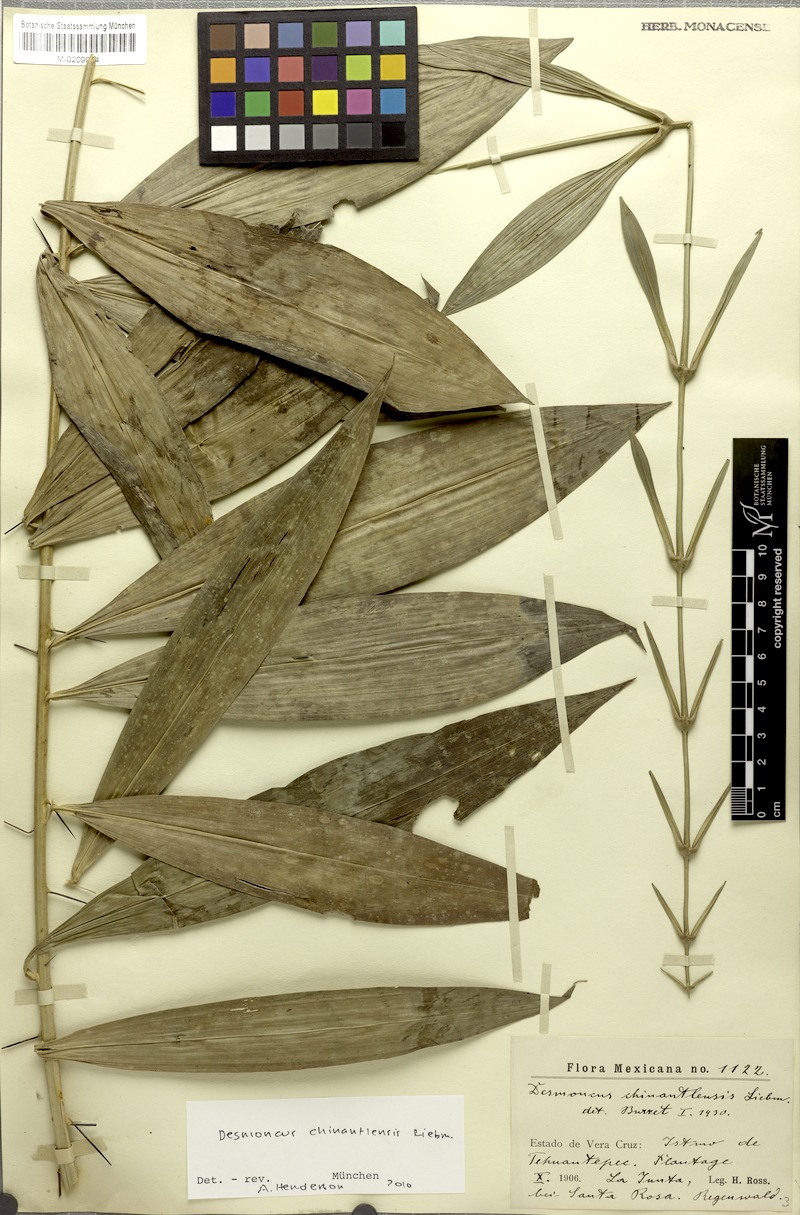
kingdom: Plantae
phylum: Tracheophyta
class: Liliopsida
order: Arecales
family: Arecaceae
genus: Desmoncus
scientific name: Desmoncus chinantlensis
